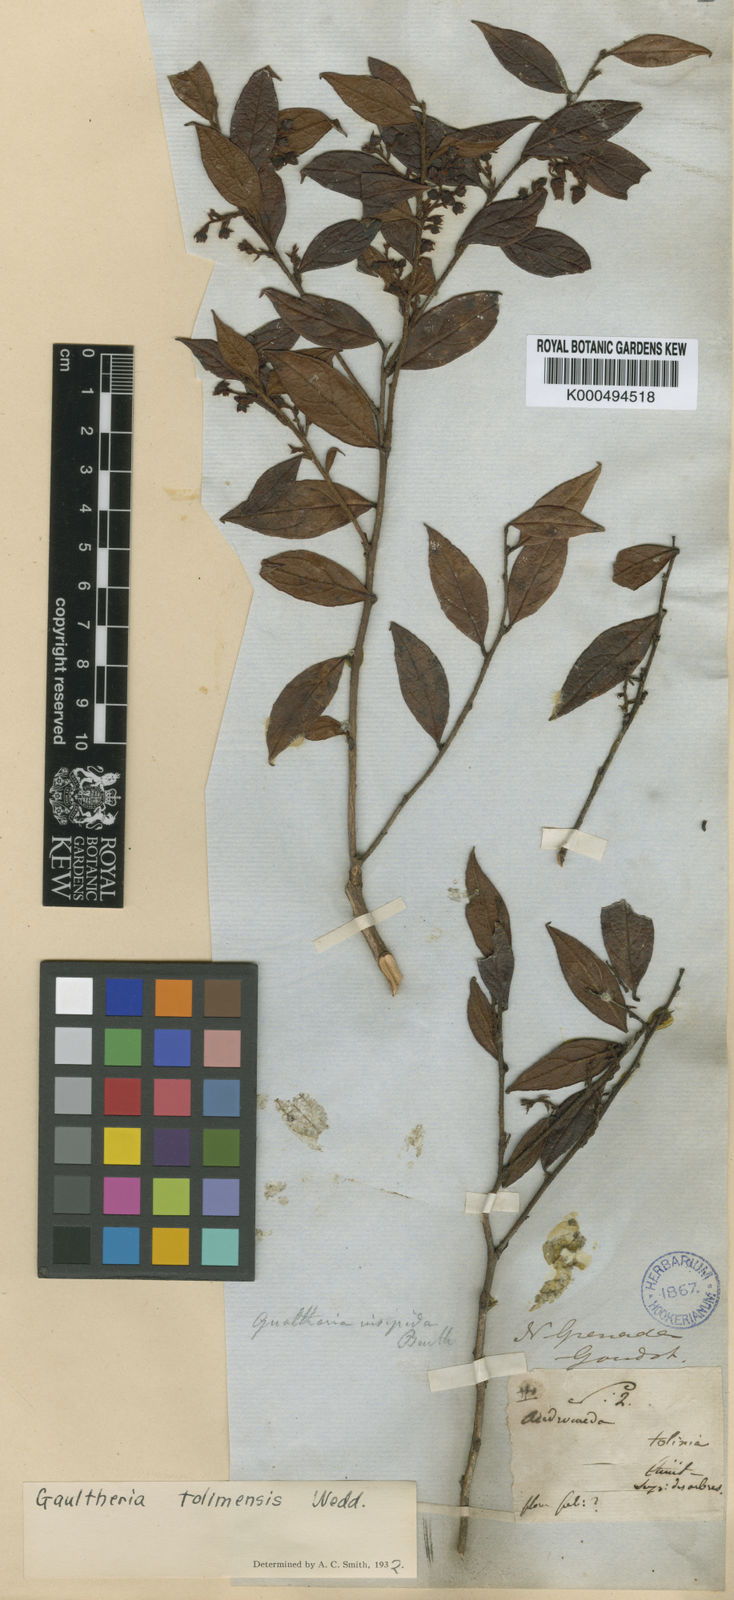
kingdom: Plantae
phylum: Tracheophyta
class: Magnoliopsida
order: Ericales
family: Ericaceae
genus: Gaultheria
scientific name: Gaultheria strigosa
